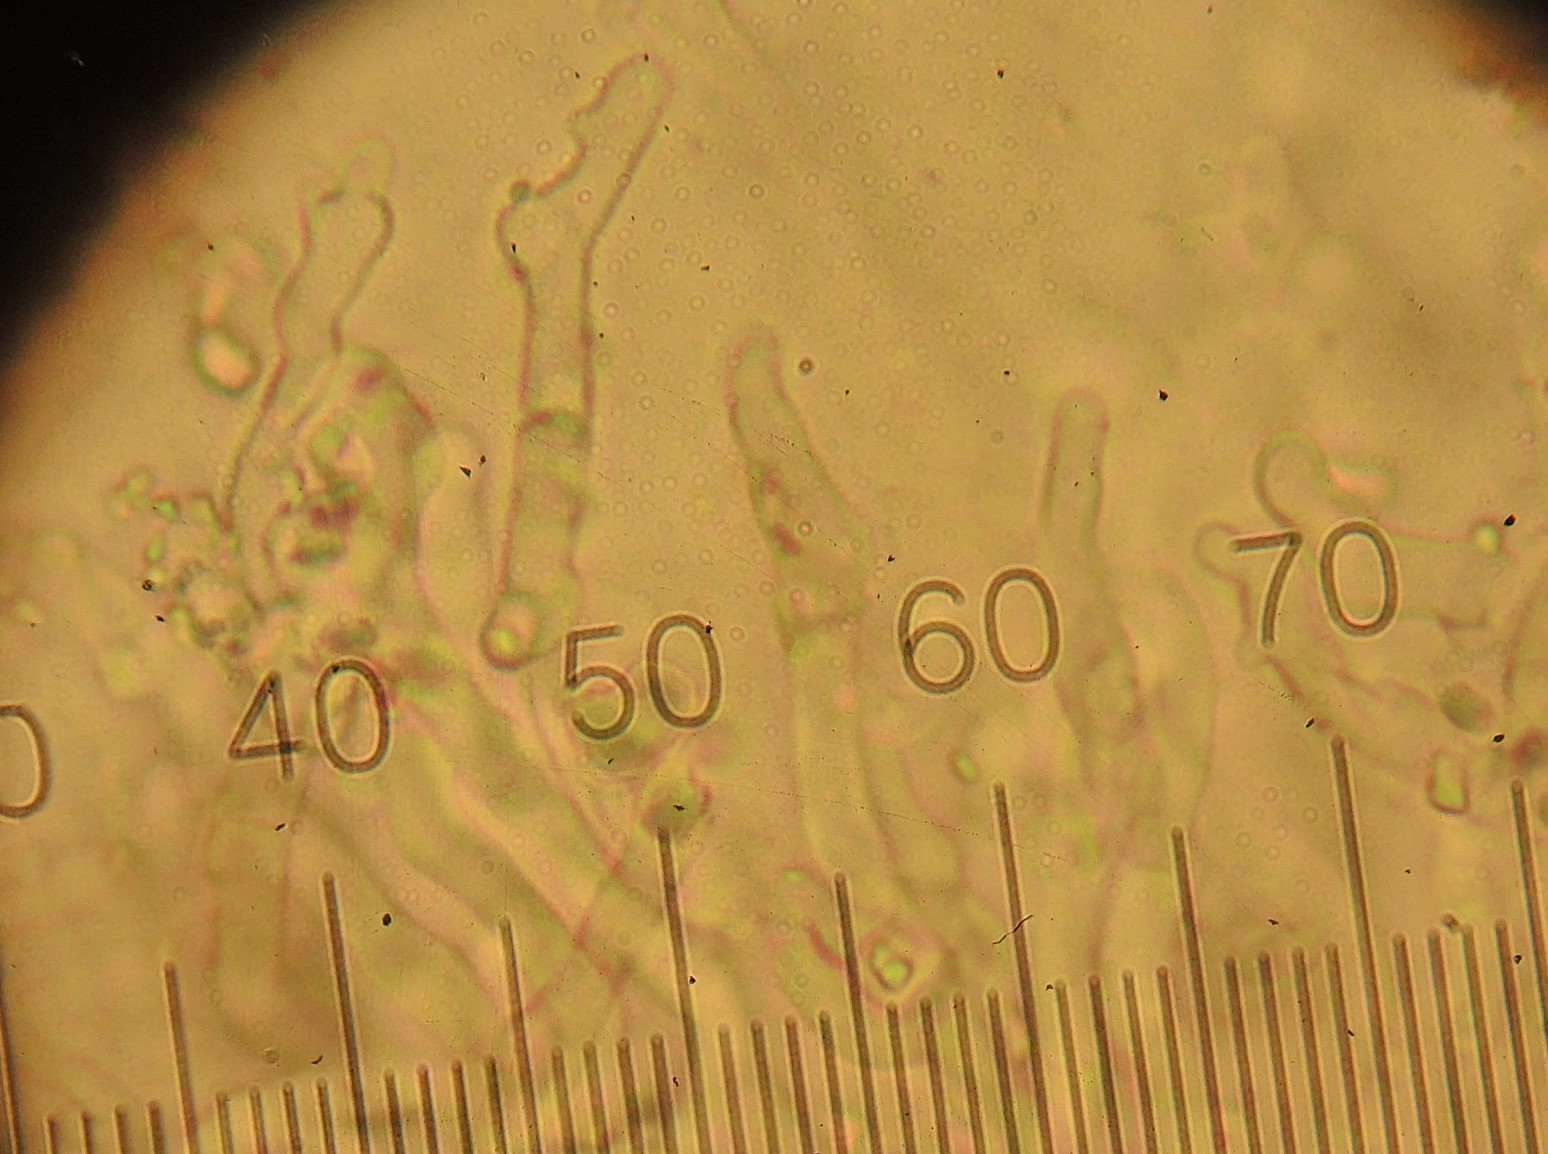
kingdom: Fungi
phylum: Basidiomycota
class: Agaricomycetes
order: Agaricales
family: Pleurotaceae
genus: Resupinatus
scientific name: Resupinatus griseopallidus
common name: ene-barkhat
